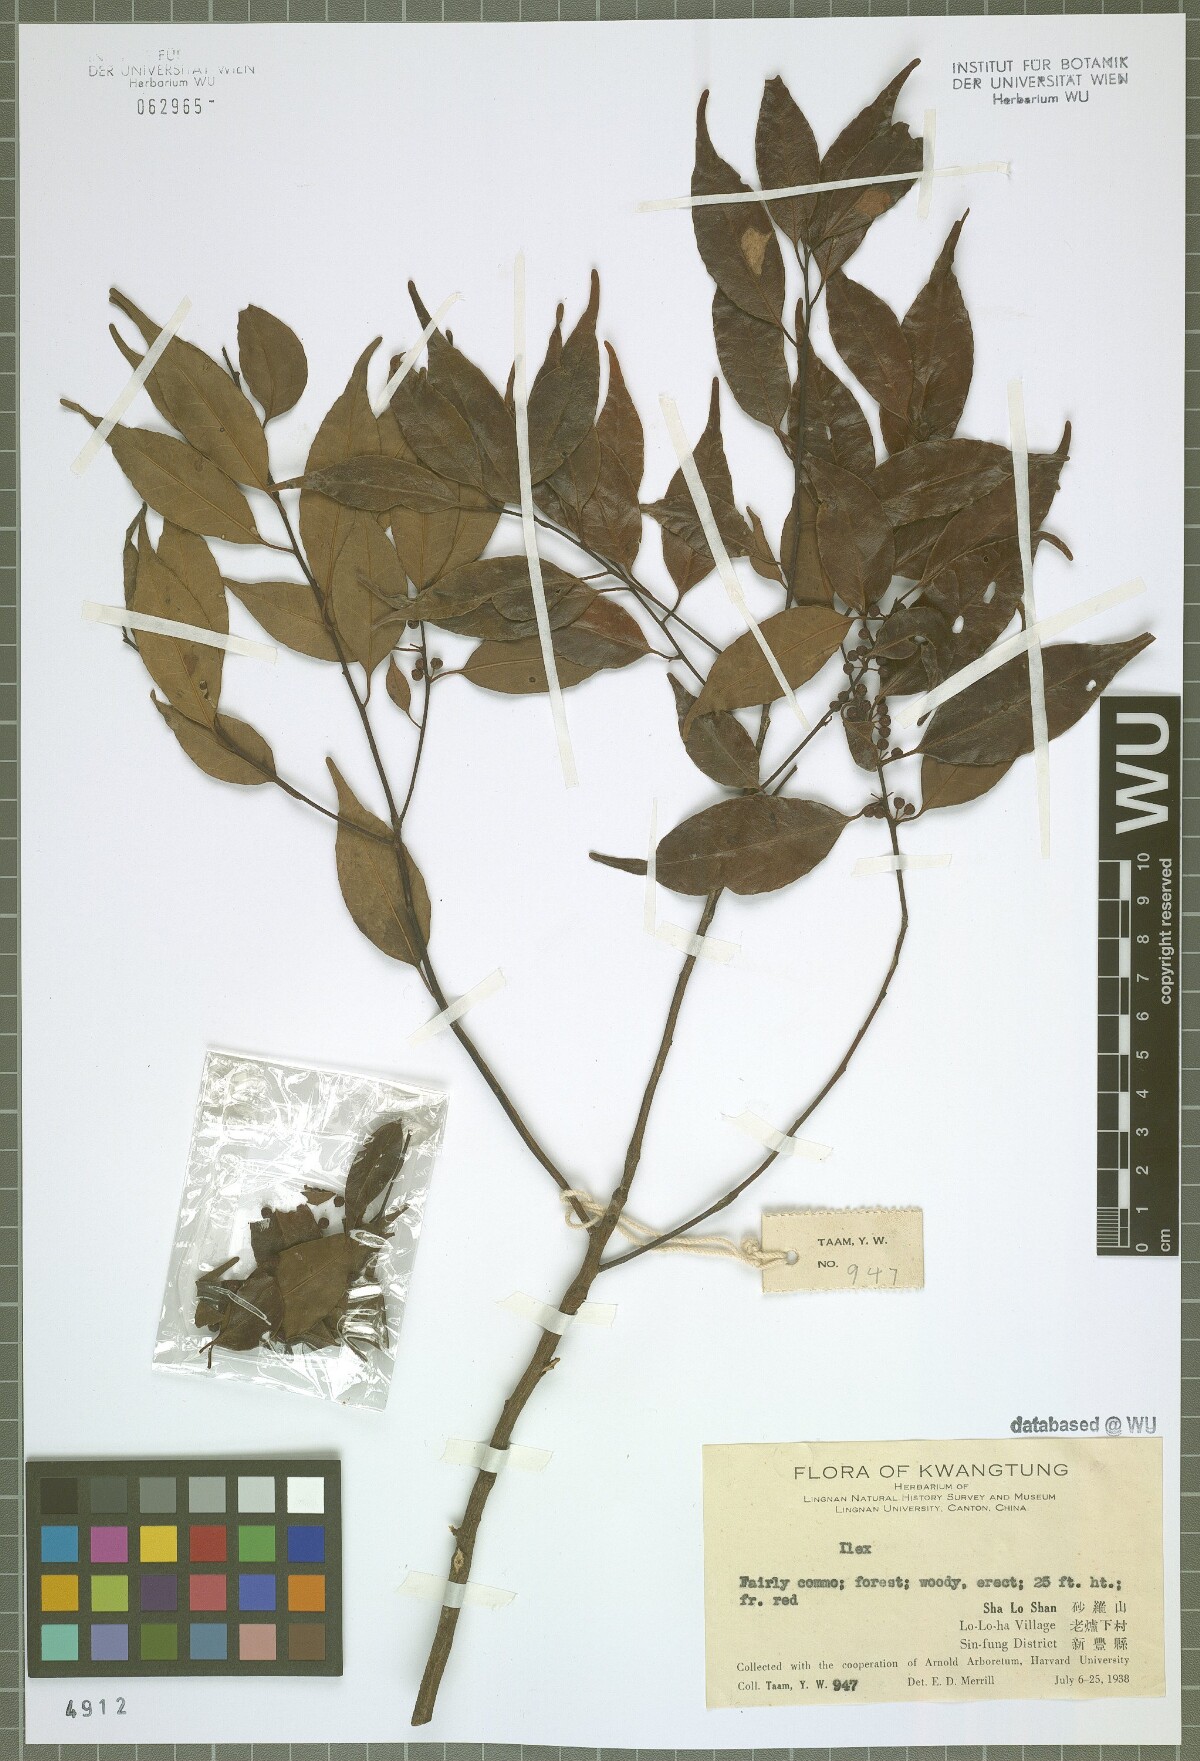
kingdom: Plantae
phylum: Tracheophyta
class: Magnoliopsida
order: Aquifoliales
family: Aquifoliaceae
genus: Ilex
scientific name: Ilex
